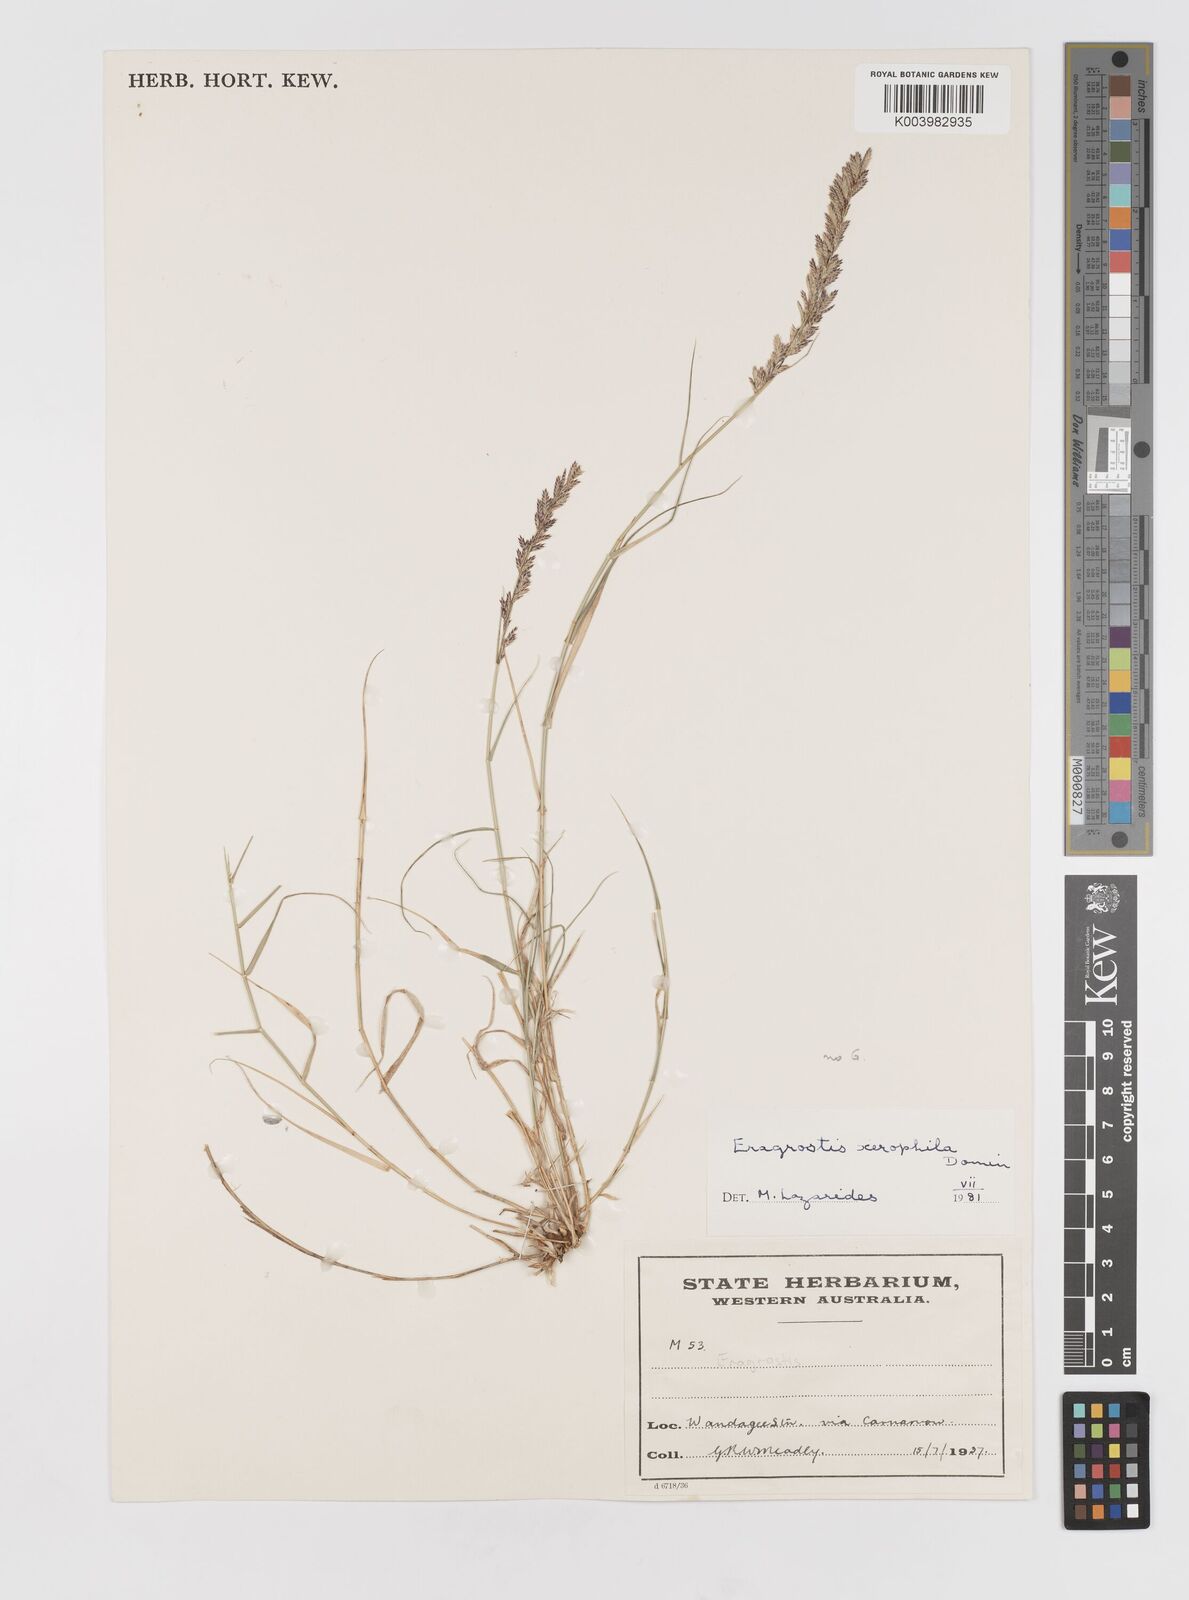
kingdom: Plantae
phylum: Tracheophyta
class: Liliopsida
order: Poales
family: Poaceae
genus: Eragrostis
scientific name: Eragrostis xerophila
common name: Wire wandarrie grass
